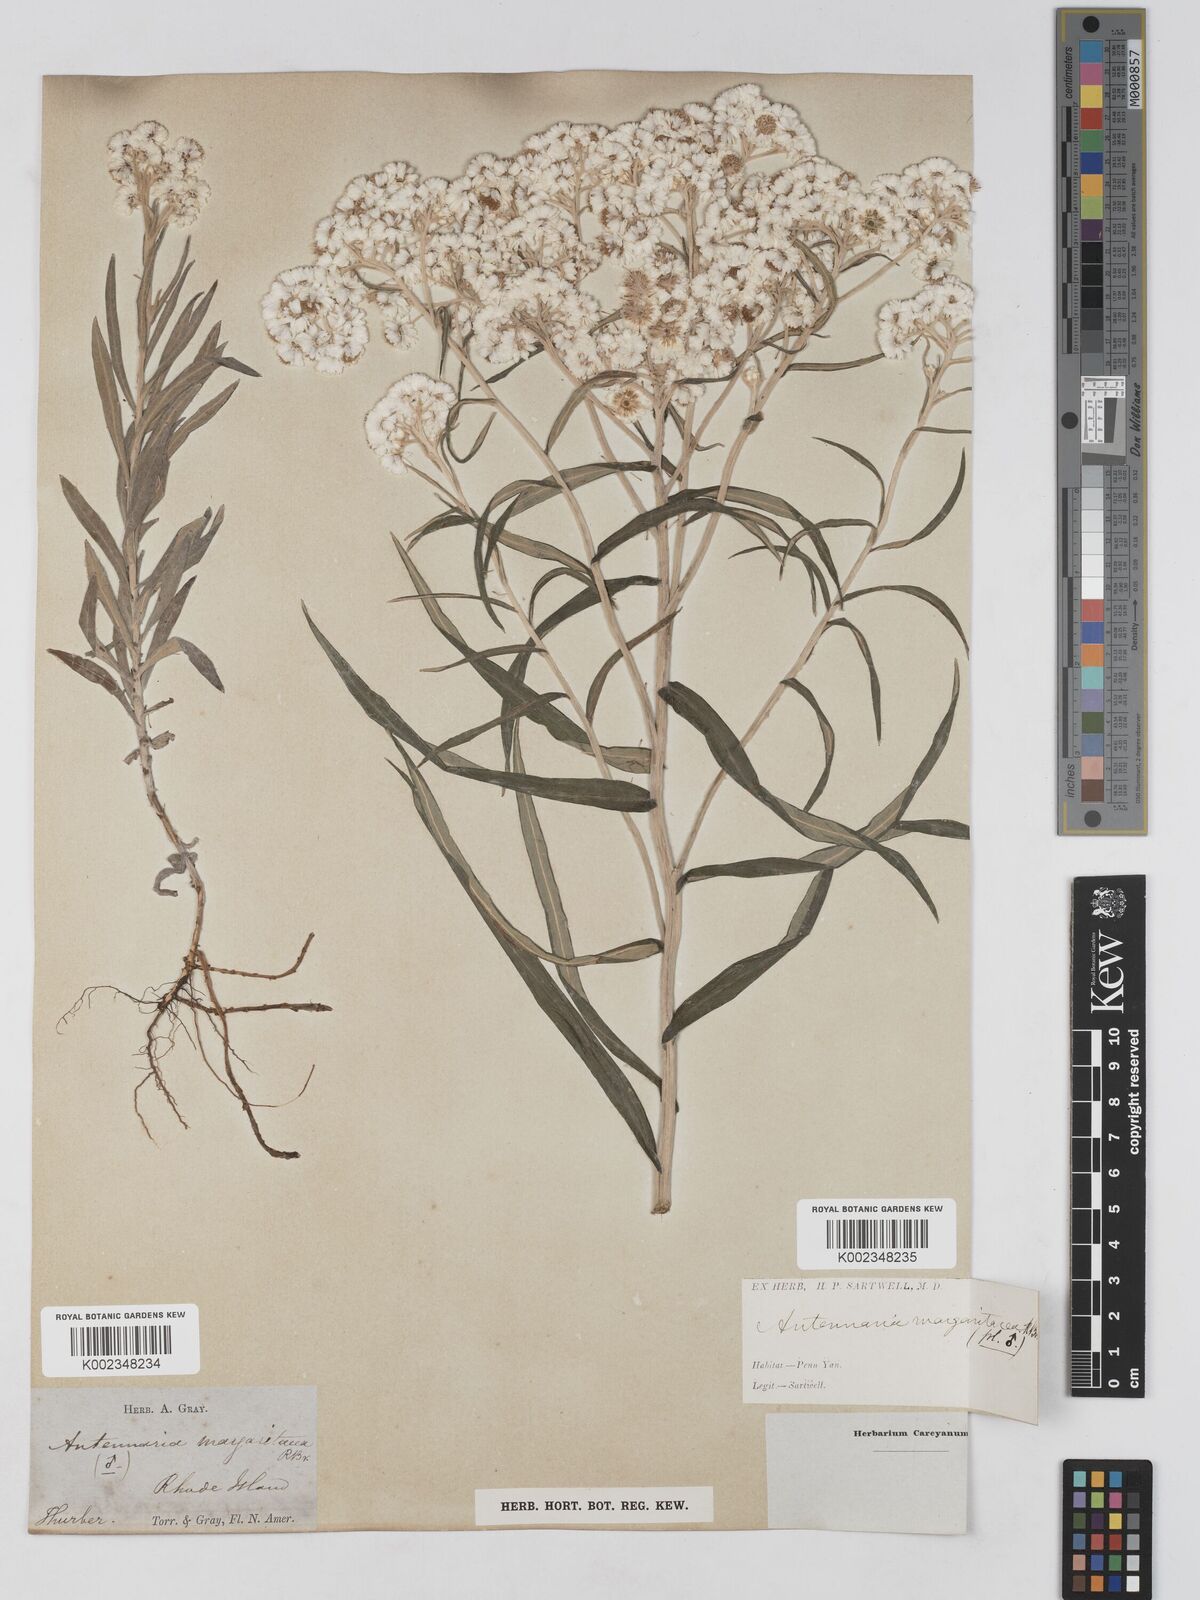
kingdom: Plantae
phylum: Tracheophyta
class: Magnoliopsida
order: Asterales
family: Asteraceae
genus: Anaphalis
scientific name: Anaphalis margaritacea
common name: Pearly everlasting
